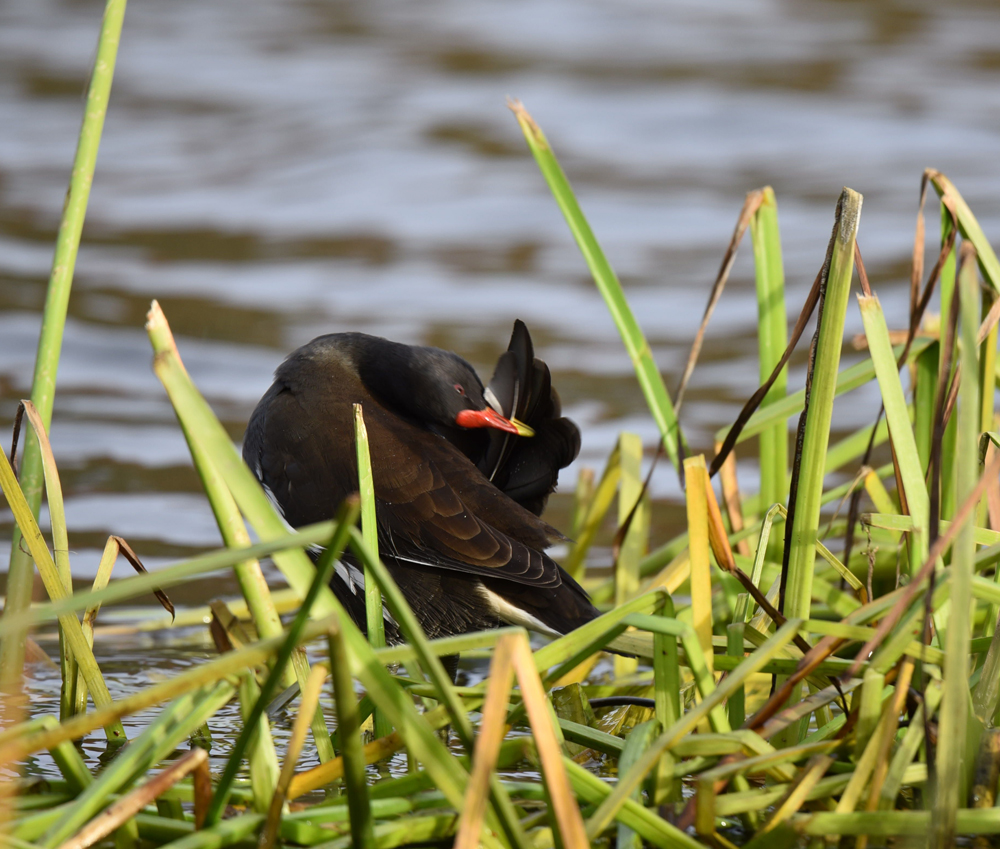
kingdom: Animalia
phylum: Chordata
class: Aves
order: Gruiformes
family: Rallidae
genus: Gallinula
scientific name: Gallinula chloropus
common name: Common moorhen
